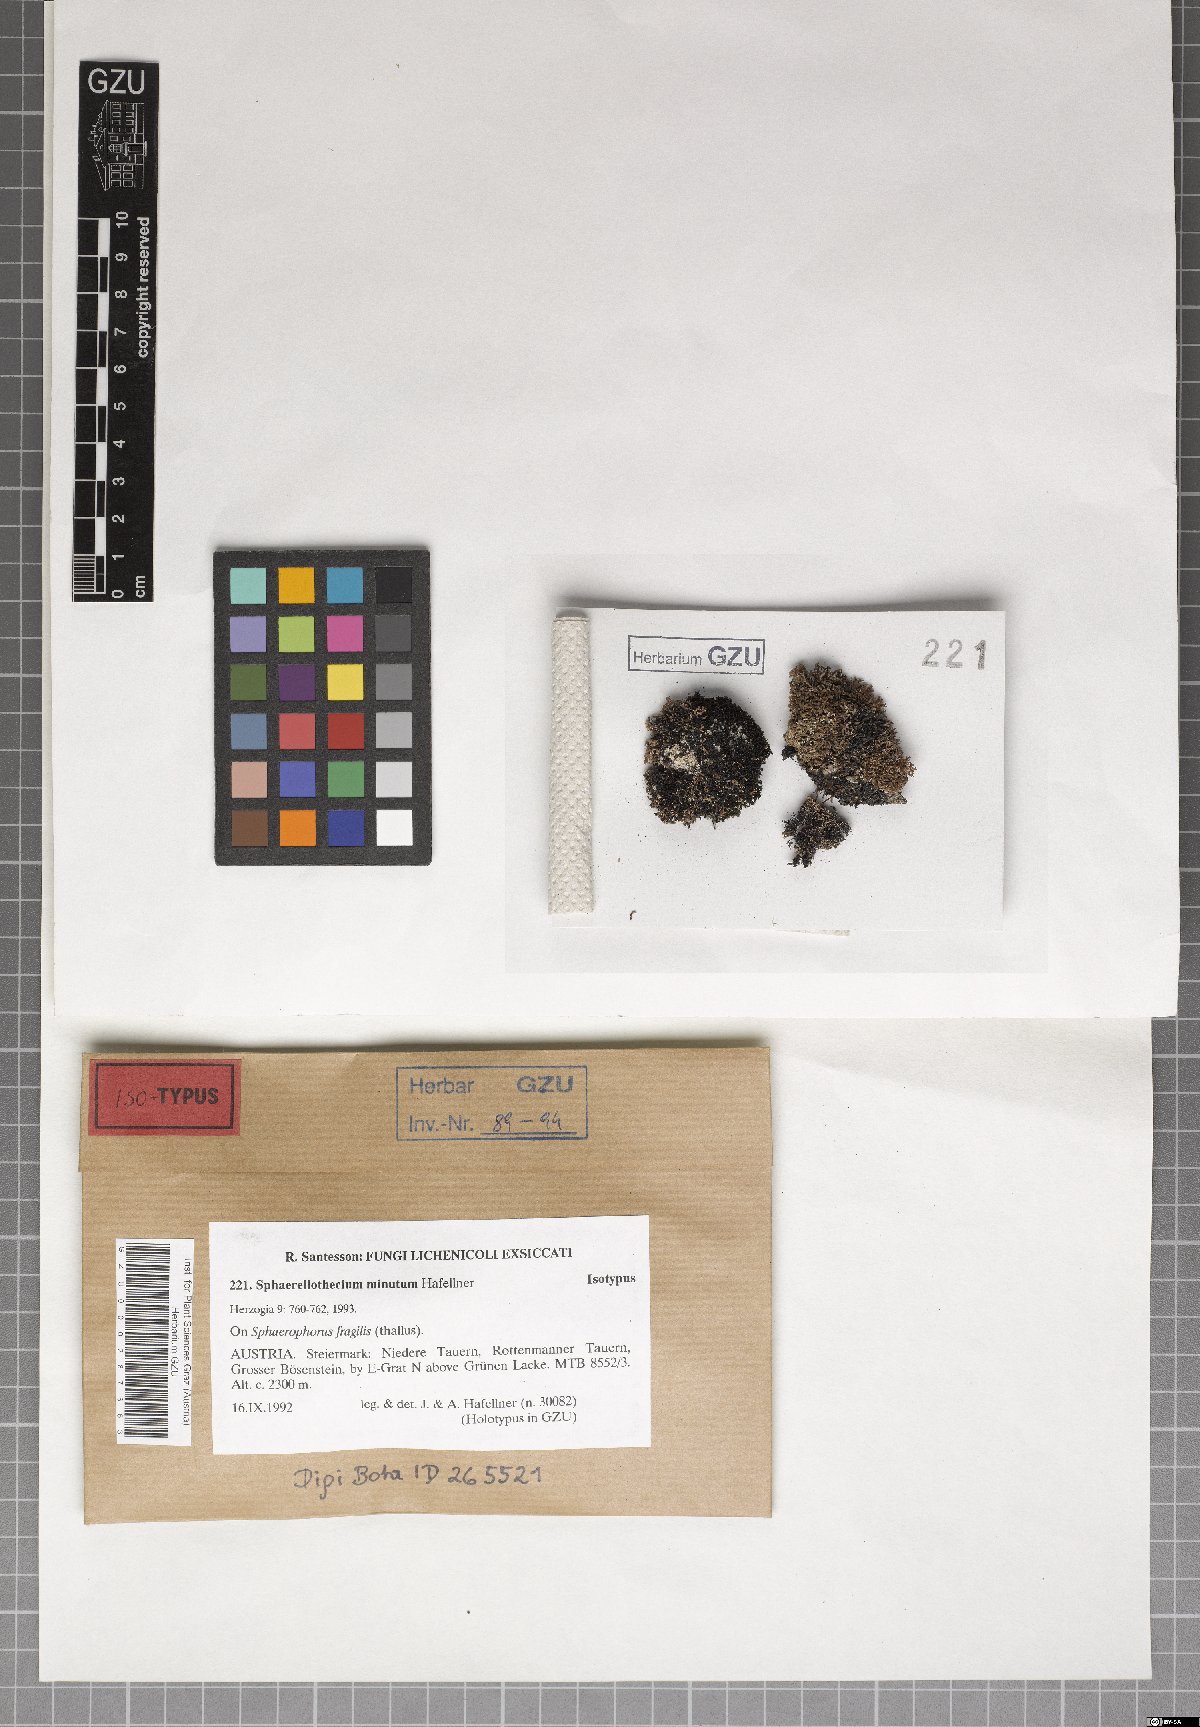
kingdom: Fungi
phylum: Ascomycota
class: Dothideomycetes
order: Mycosphaerellales
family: Mycosphaerellaceae
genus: Sphaerellothecium
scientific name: Sphaerellothecium minutum
